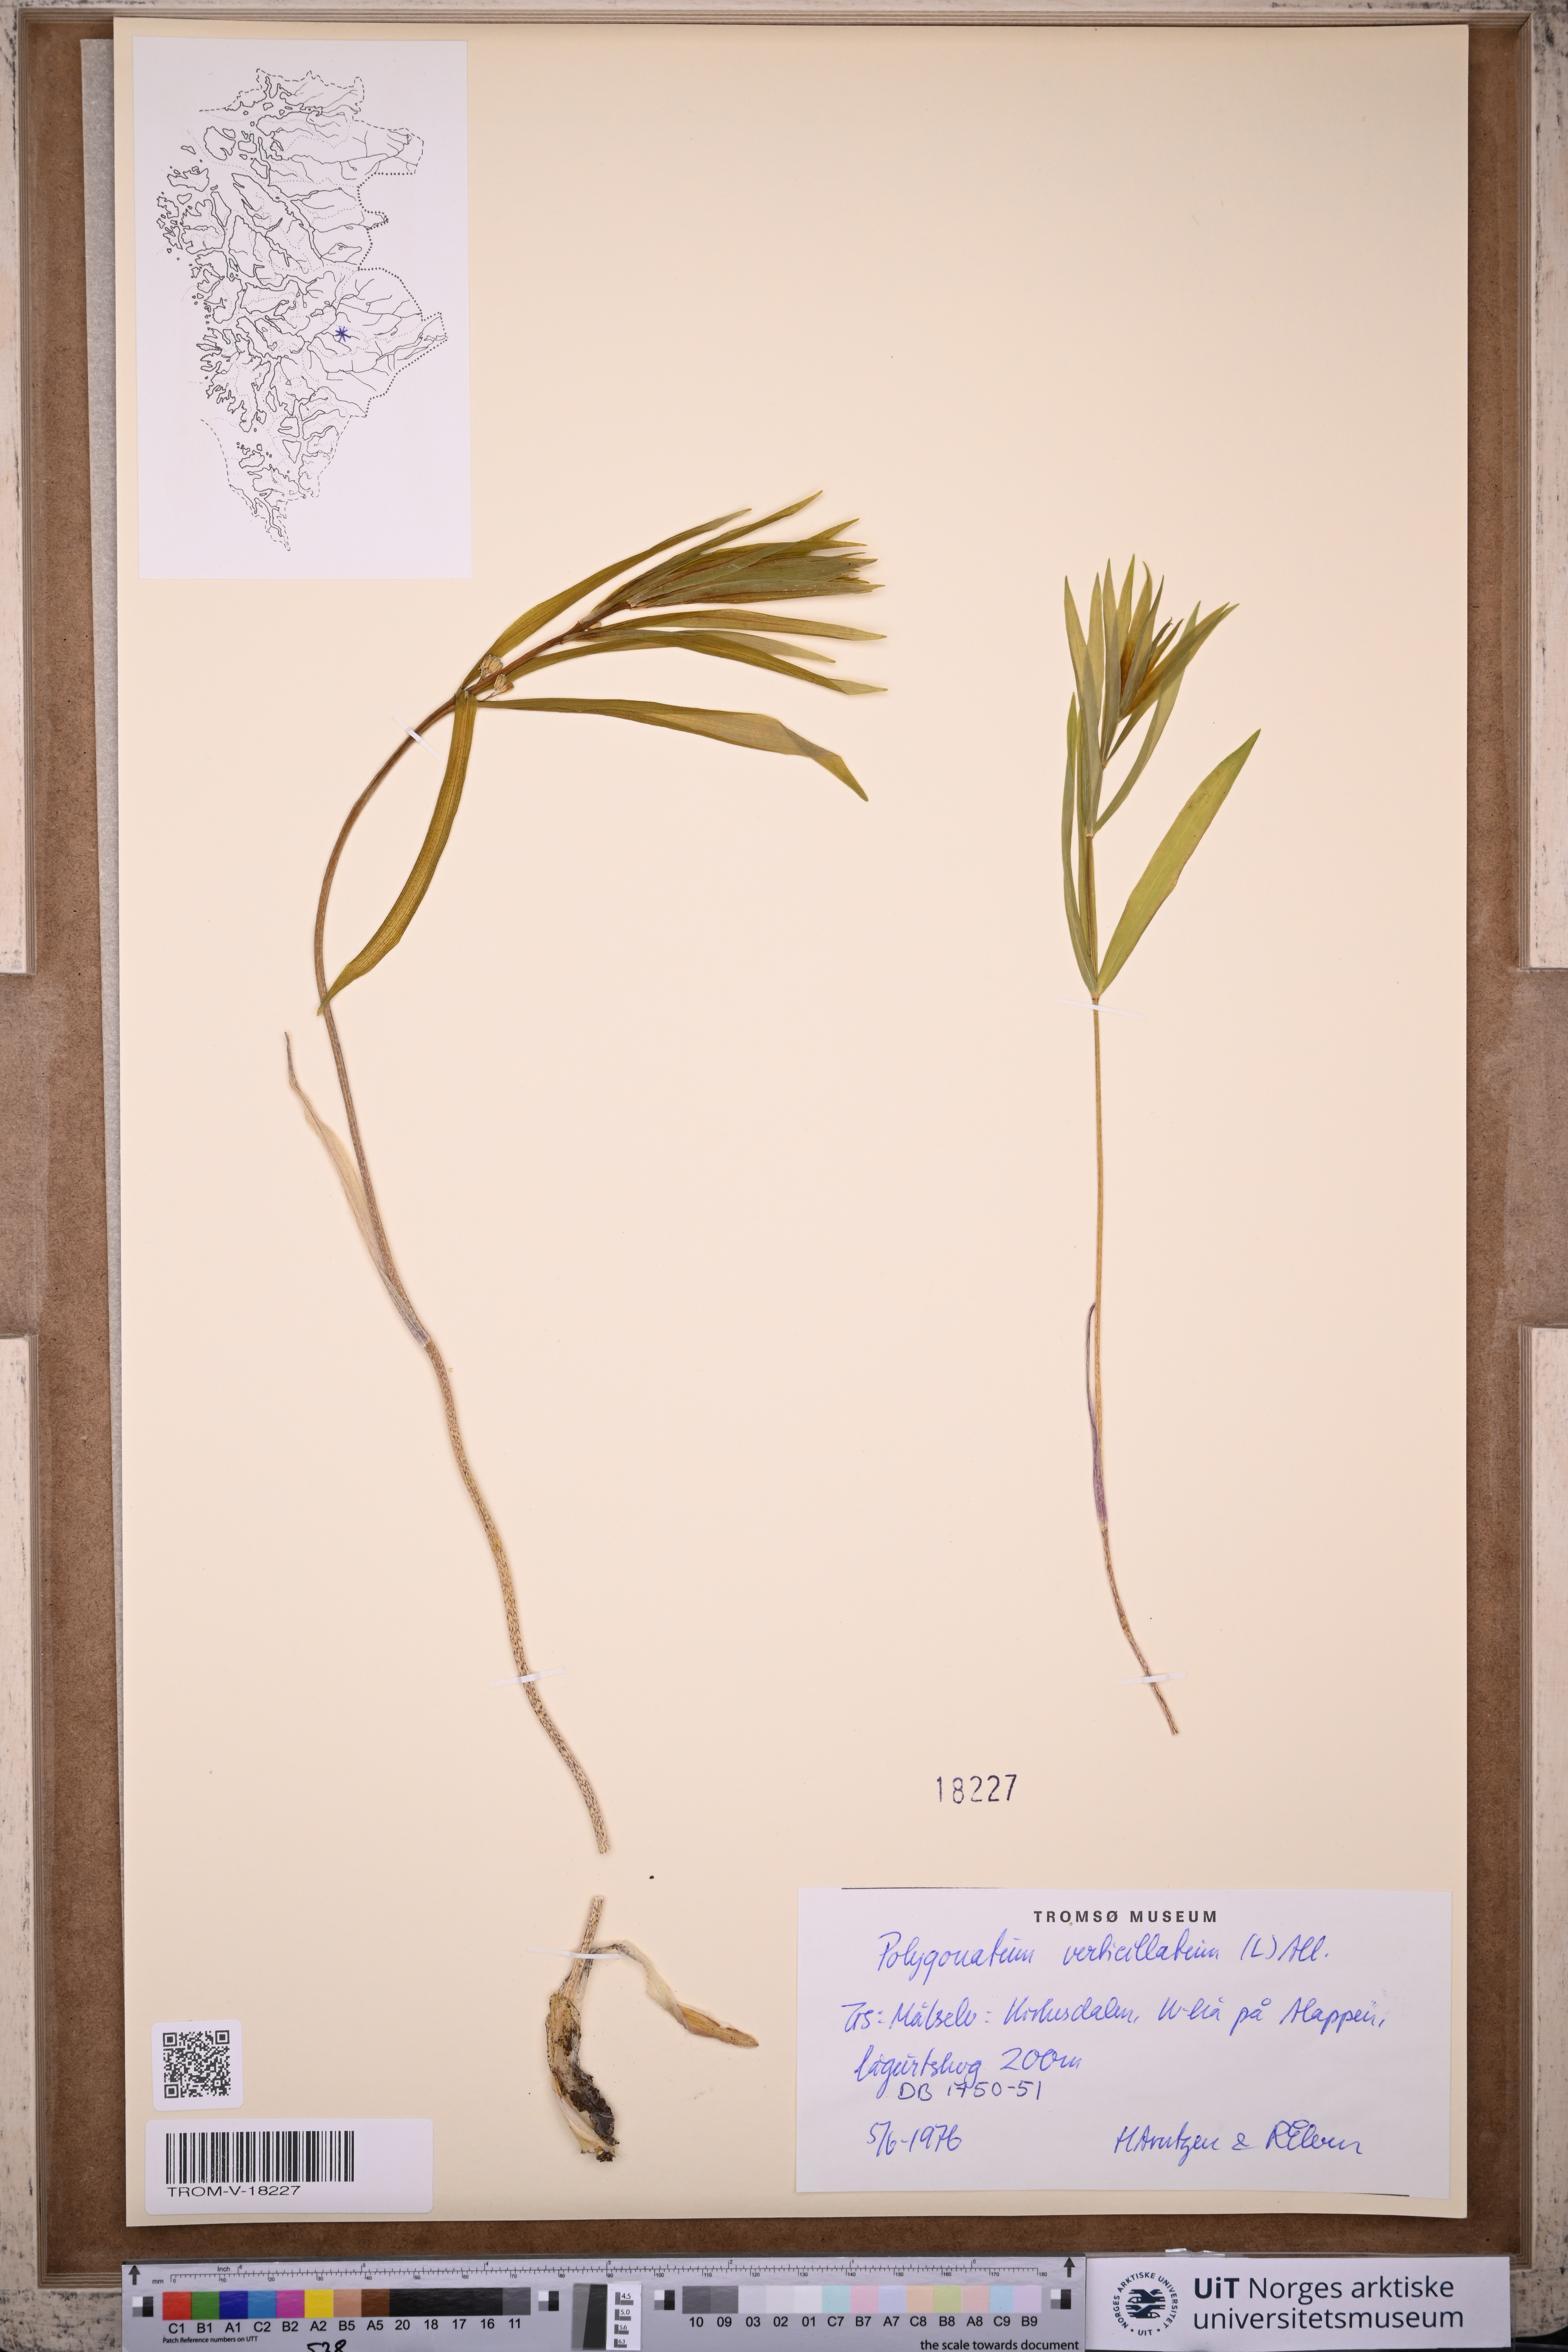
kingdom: Plantae
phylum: Tracheophyta
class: Liliopsida
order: Asparagales
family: Asparagaceae
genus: Polygonatum
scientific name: Polygonatum verticillatum
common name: Whorled solomon's-seal
